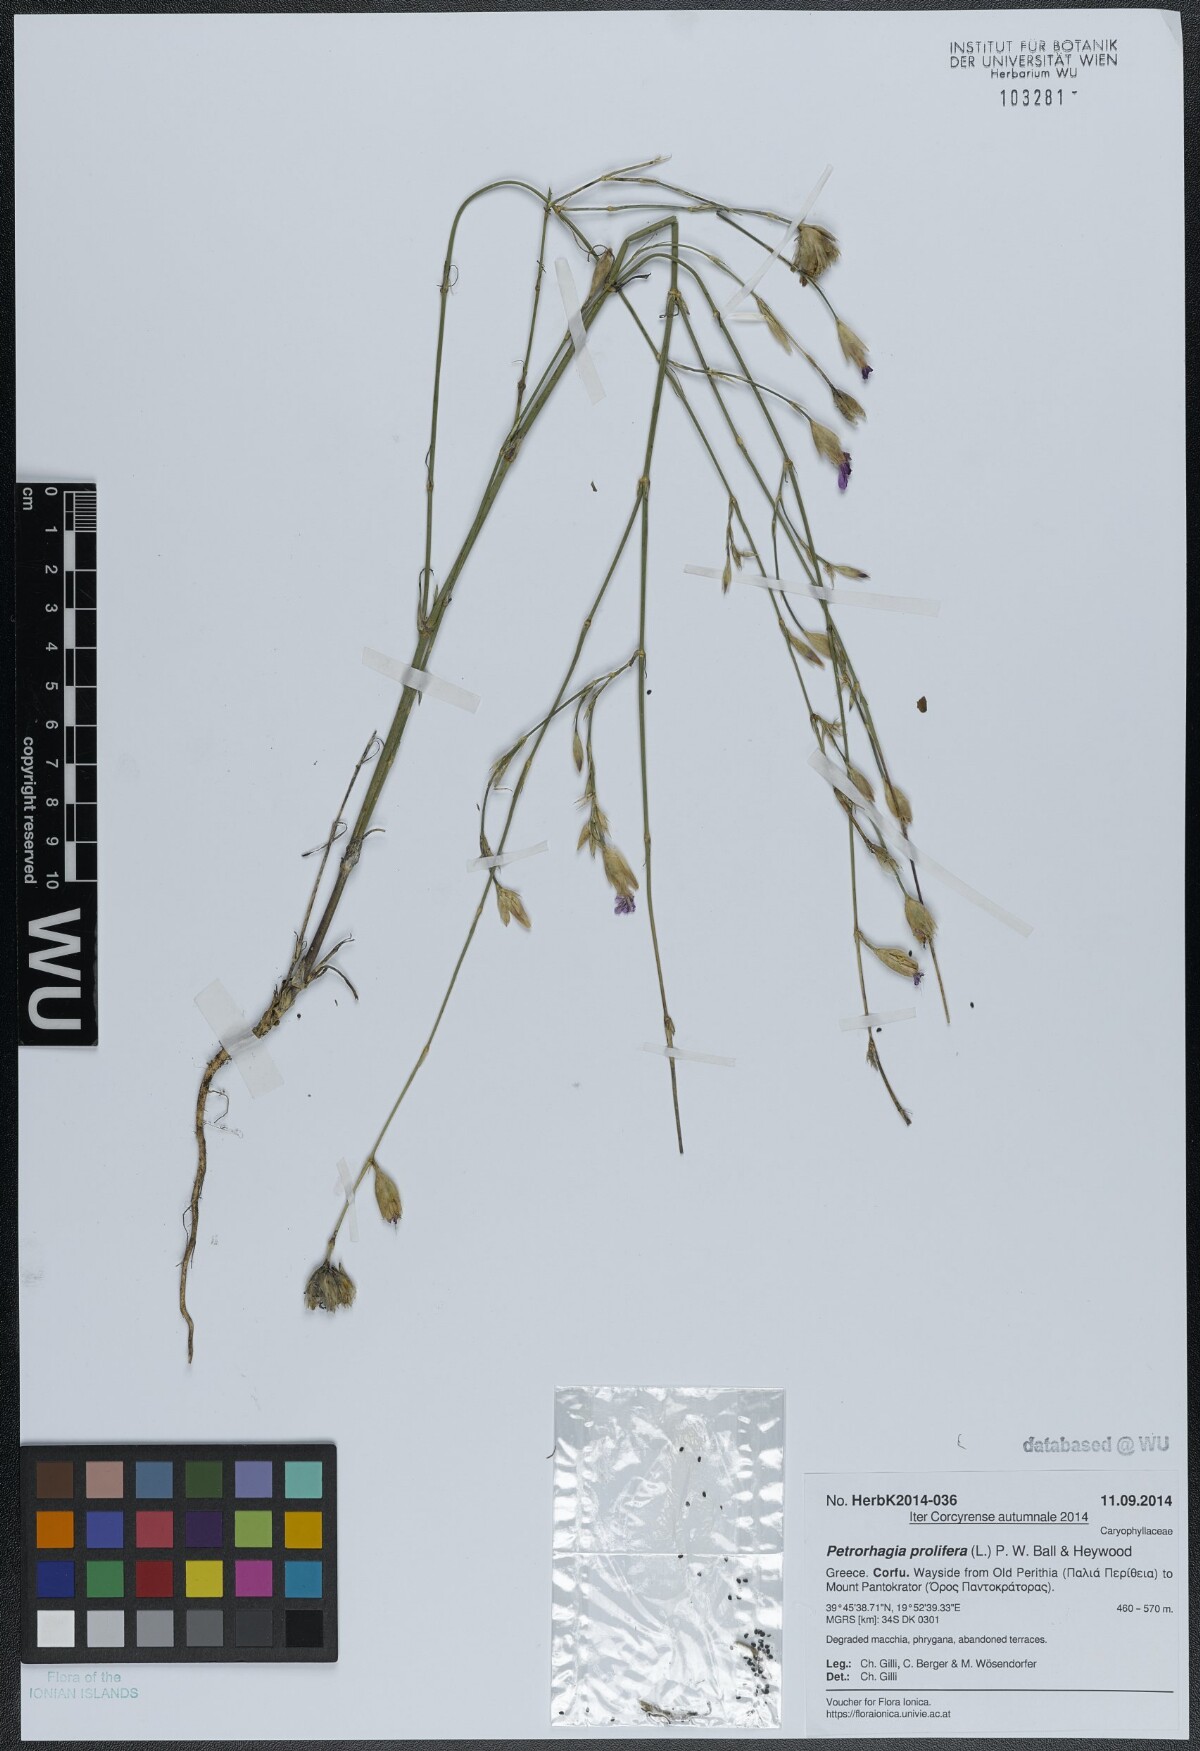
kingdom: Plantae
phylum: Tracheophyta
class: Magnoliopsida
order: Caryophyllales
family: Caryophyllaceae
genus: Petrorhagia
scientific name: Petrorhagia prolifera
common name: Proliferous pink
